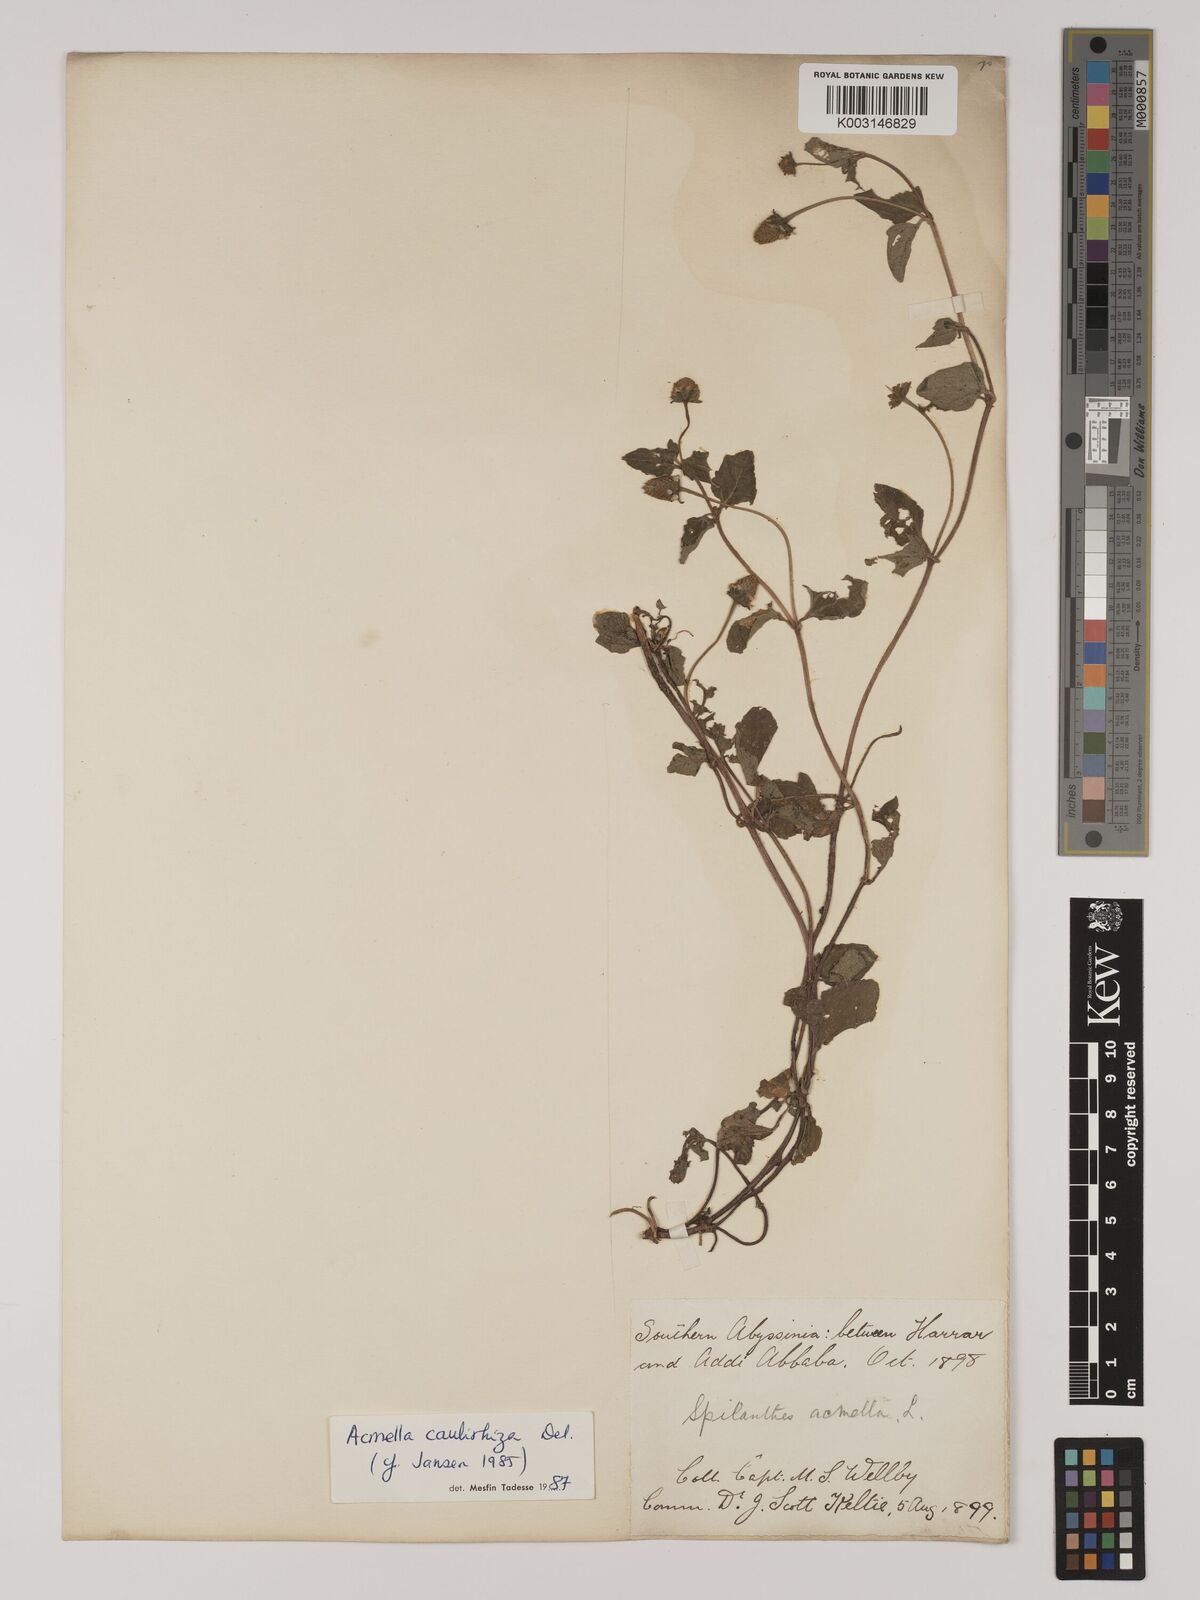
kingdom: Plantae
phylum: Tracheophyta
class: Magnoliopsida
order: Asterales
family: Asteraceae
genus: Acmella
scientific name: Acmella caulirhiza
